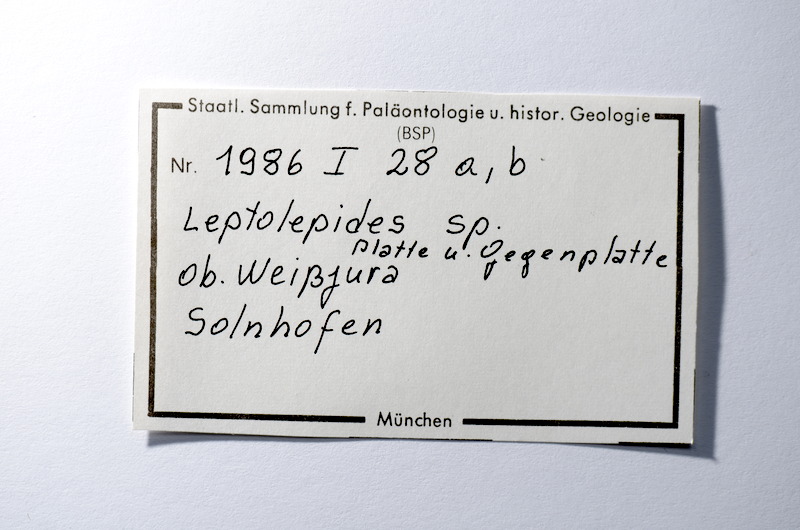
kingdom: Animalia
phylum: Chordata
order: Salmoniformes
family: Orthogonikleithridae
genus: Leptolepides
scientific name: Leptolepides
